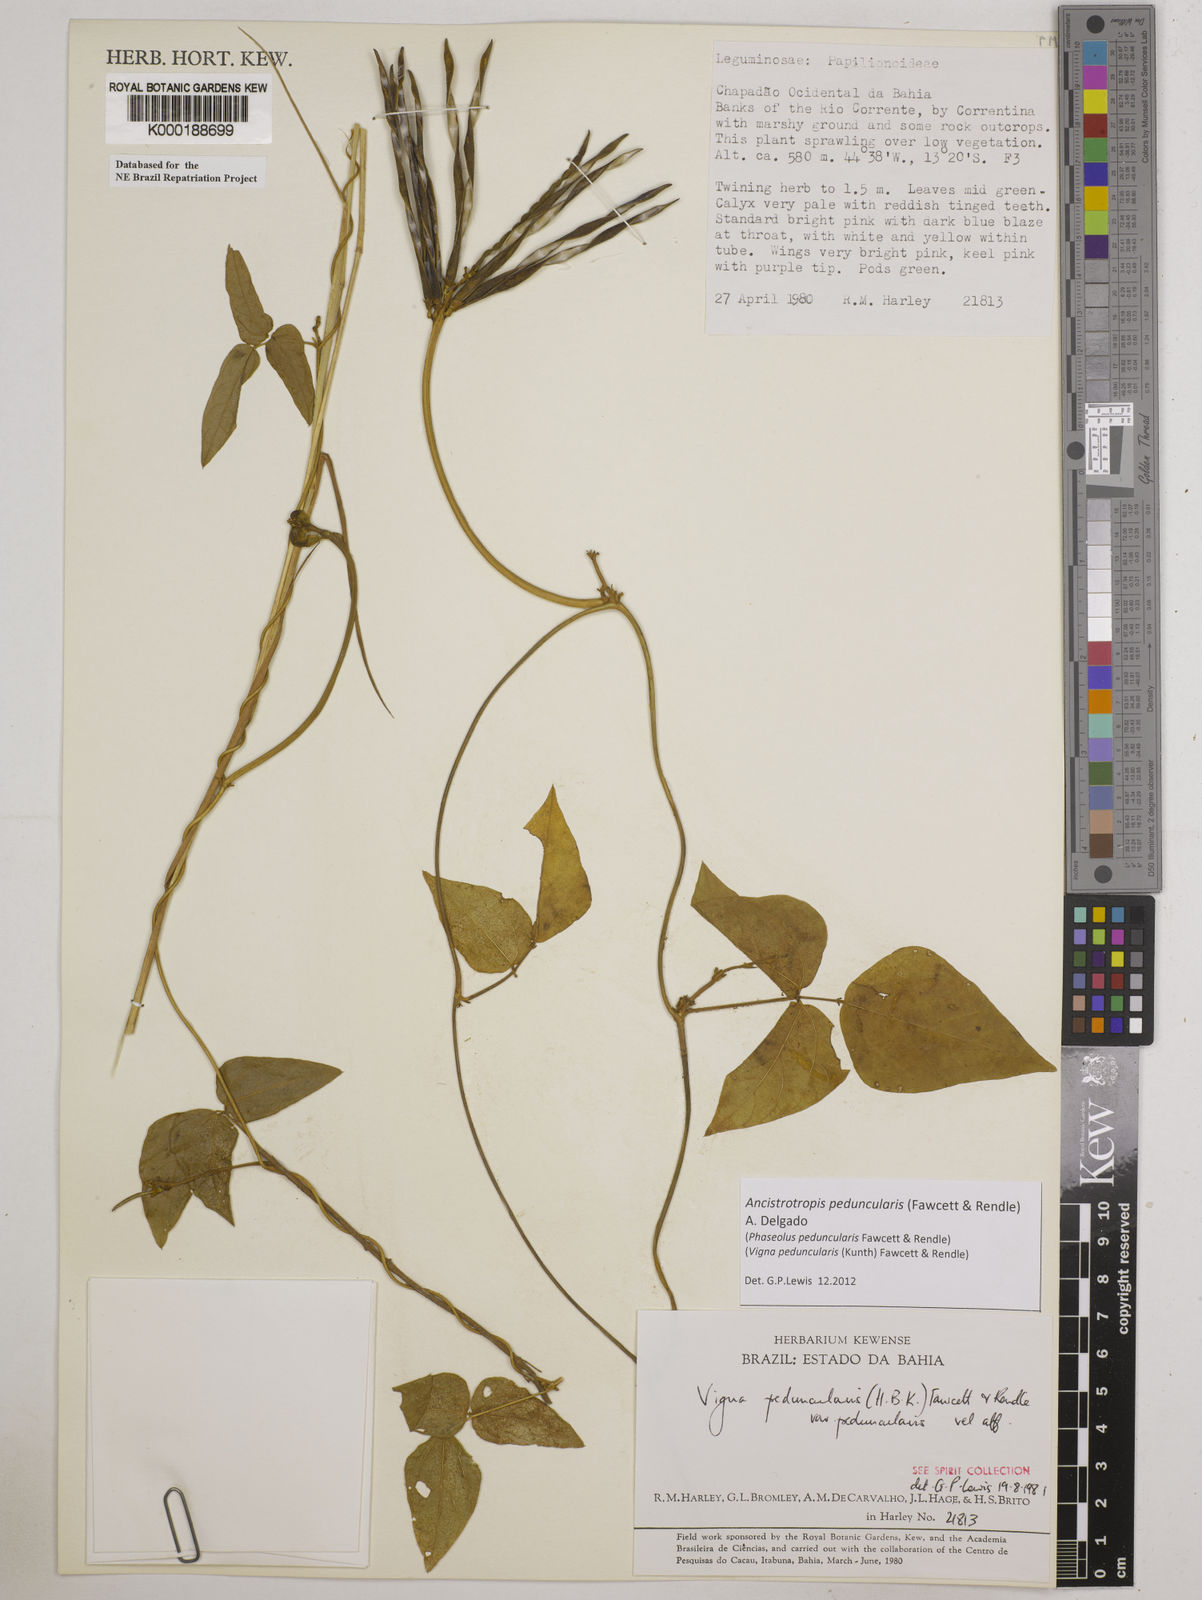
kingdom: Plantae
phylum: Tracheophyta
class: Magnoliopsida
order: Fabales
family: Fabaceae
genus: Ancistrotropis
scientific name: Ancistrotropis peduncularis
